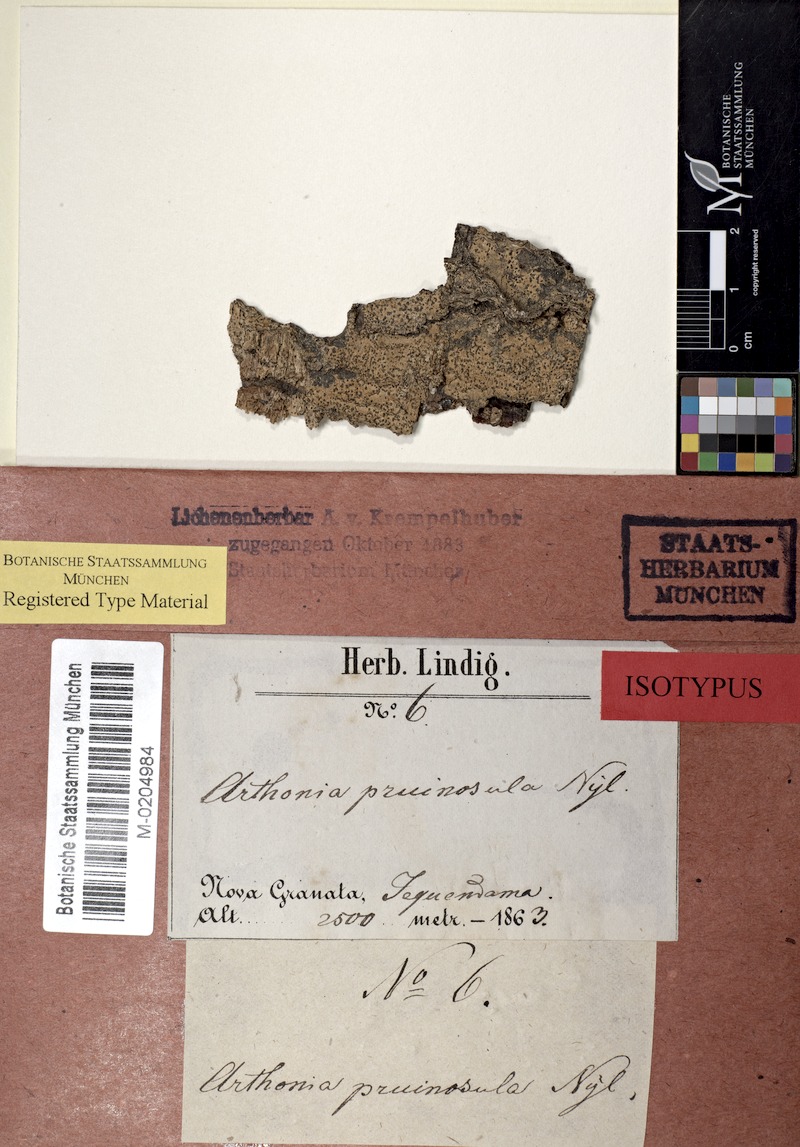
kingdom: Fungi
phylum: Ascomycota
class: Arthoniomycetes
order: Arthoniales
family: Arthoniaceae
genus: Arthonia
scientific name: Arthonia pruinosula
